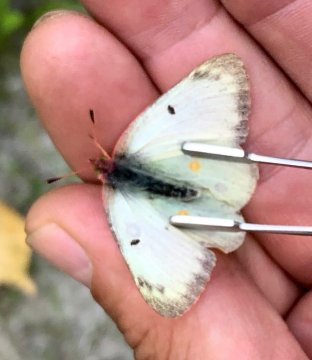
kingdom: Animalia
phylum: Arthropoda
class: Insecta
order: Lepidoptera
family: Pieridae
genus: Colias
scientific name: Colias gigantea
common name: Giant Sulphur
